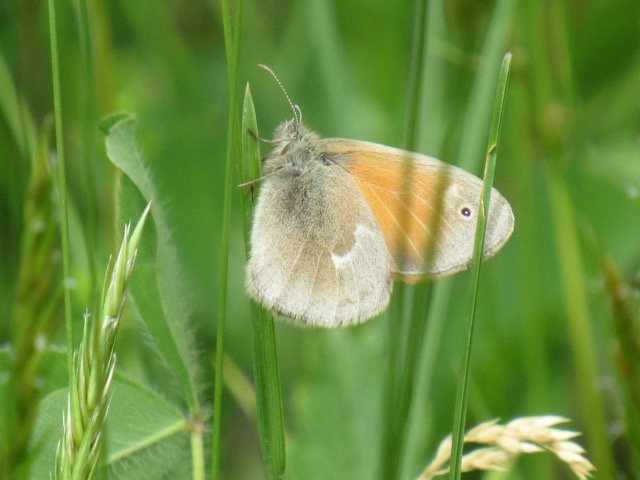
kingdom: Animalia
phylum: Arthropoda
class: Insecta
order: Lepidoptera
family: Nymphalidae
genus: Coenonympha
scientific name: Coenonympha tullia
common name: Large Heath
